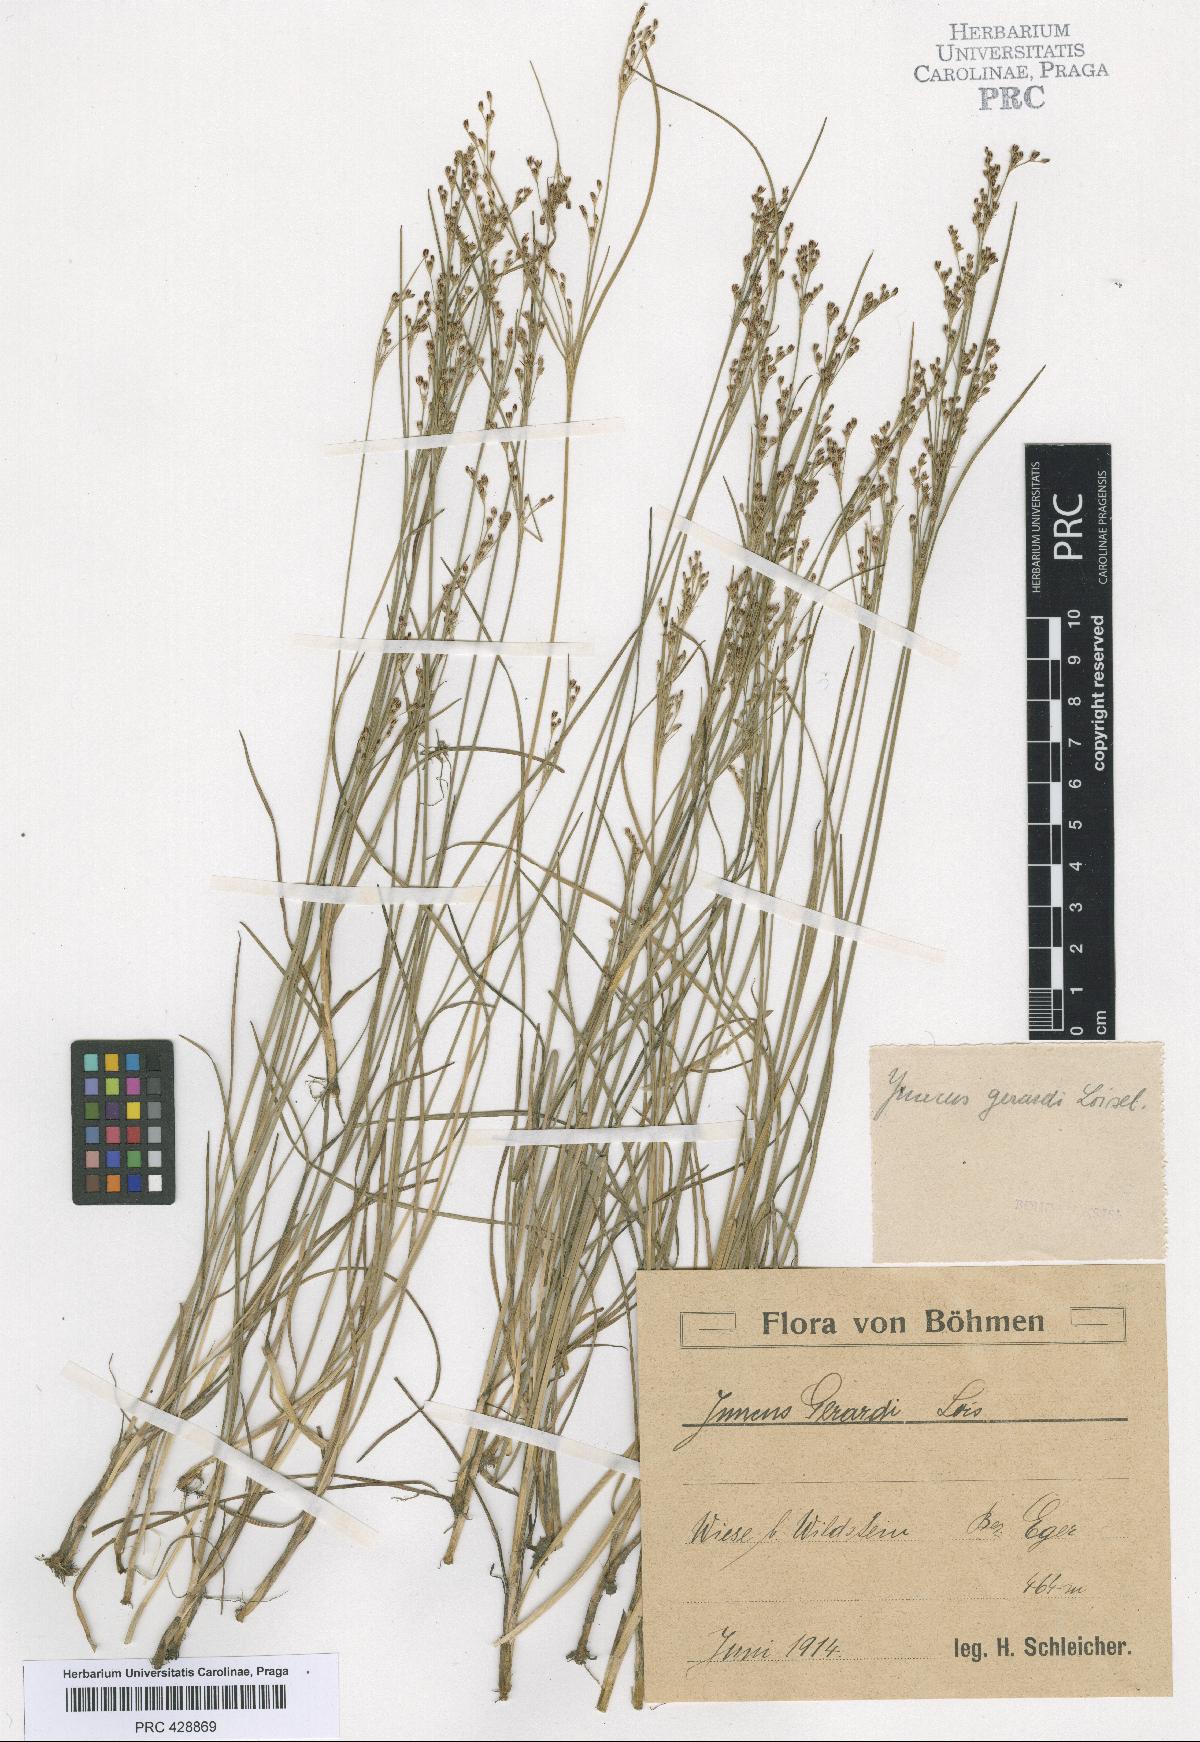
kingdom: Plantae
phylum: Tracheophyta
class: Liliopsida
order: Poales
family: Juncaceae
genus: Juncus
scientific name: Juncus compressus
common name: Round-fruited rush
